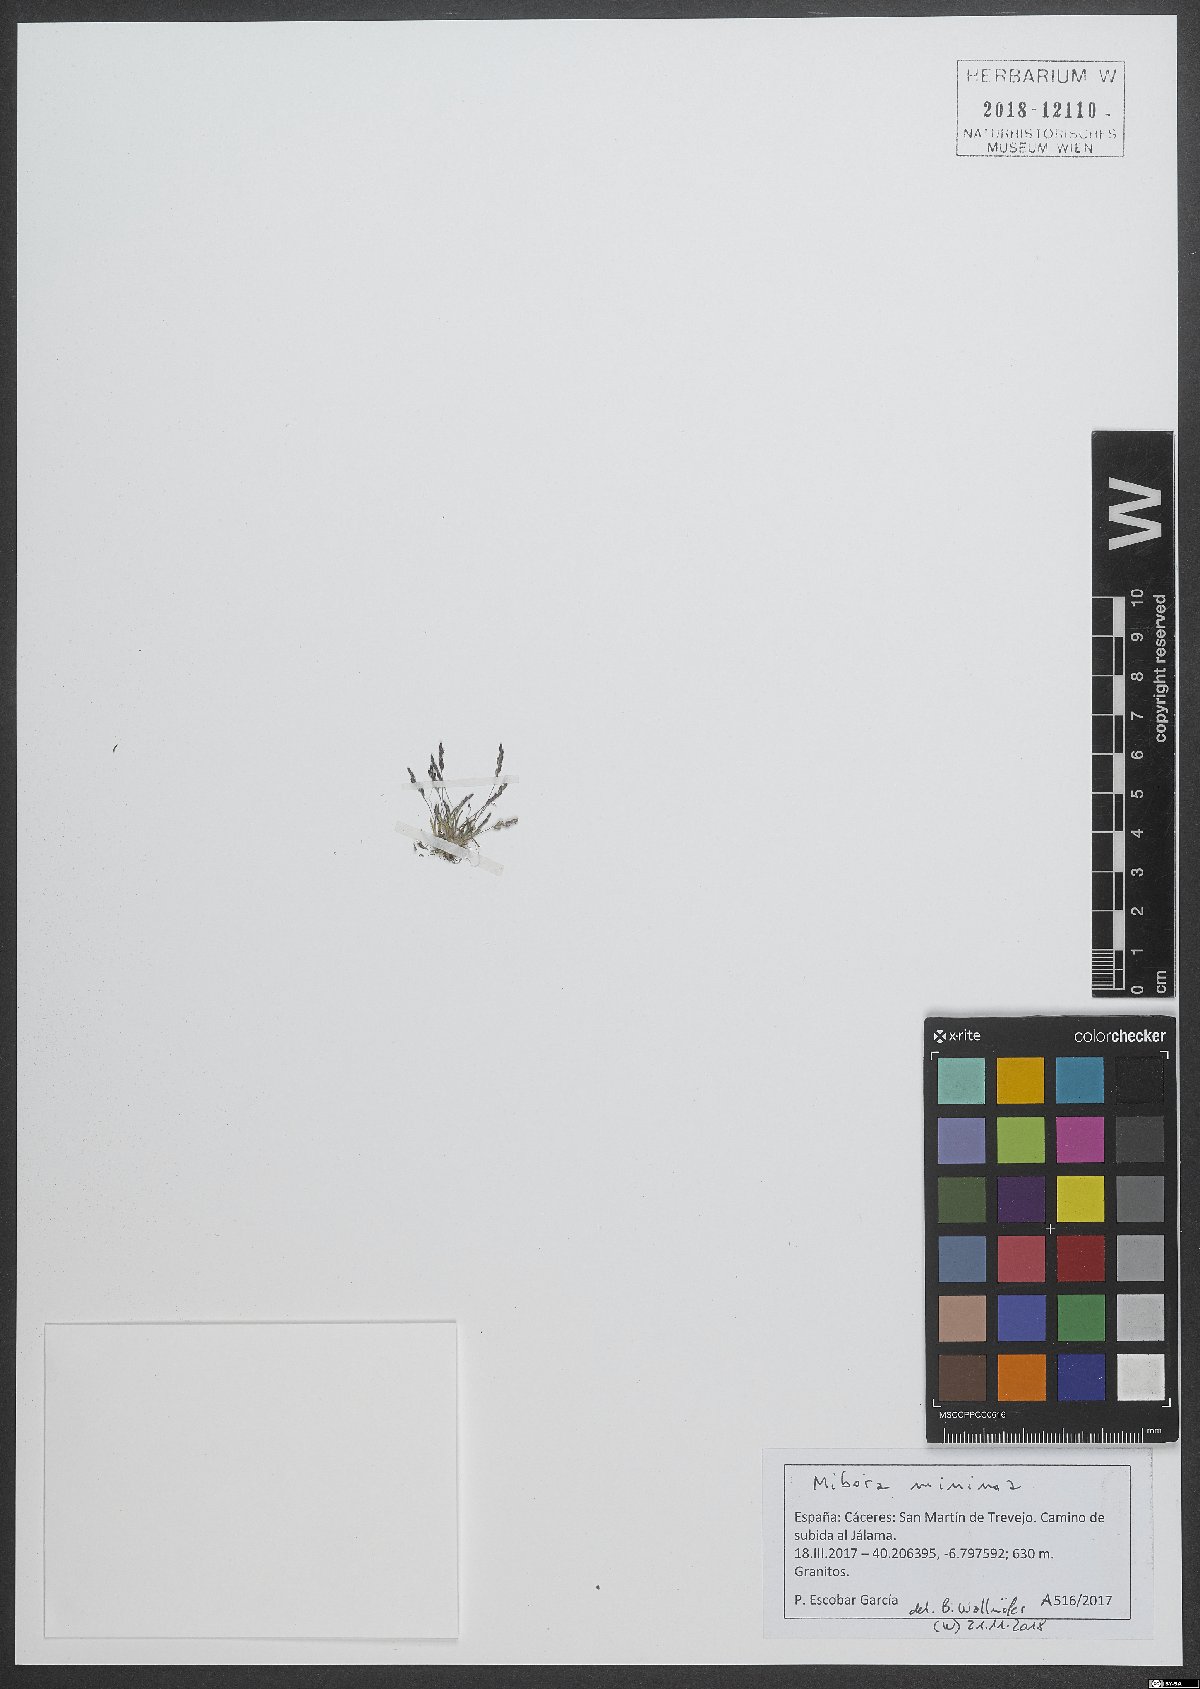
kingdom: Plantae
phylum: Tracheophyta
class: Liliopsida
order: Poales
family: Poaceae
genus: Mibora
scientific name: Mibora minima
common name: Early sand-grass
